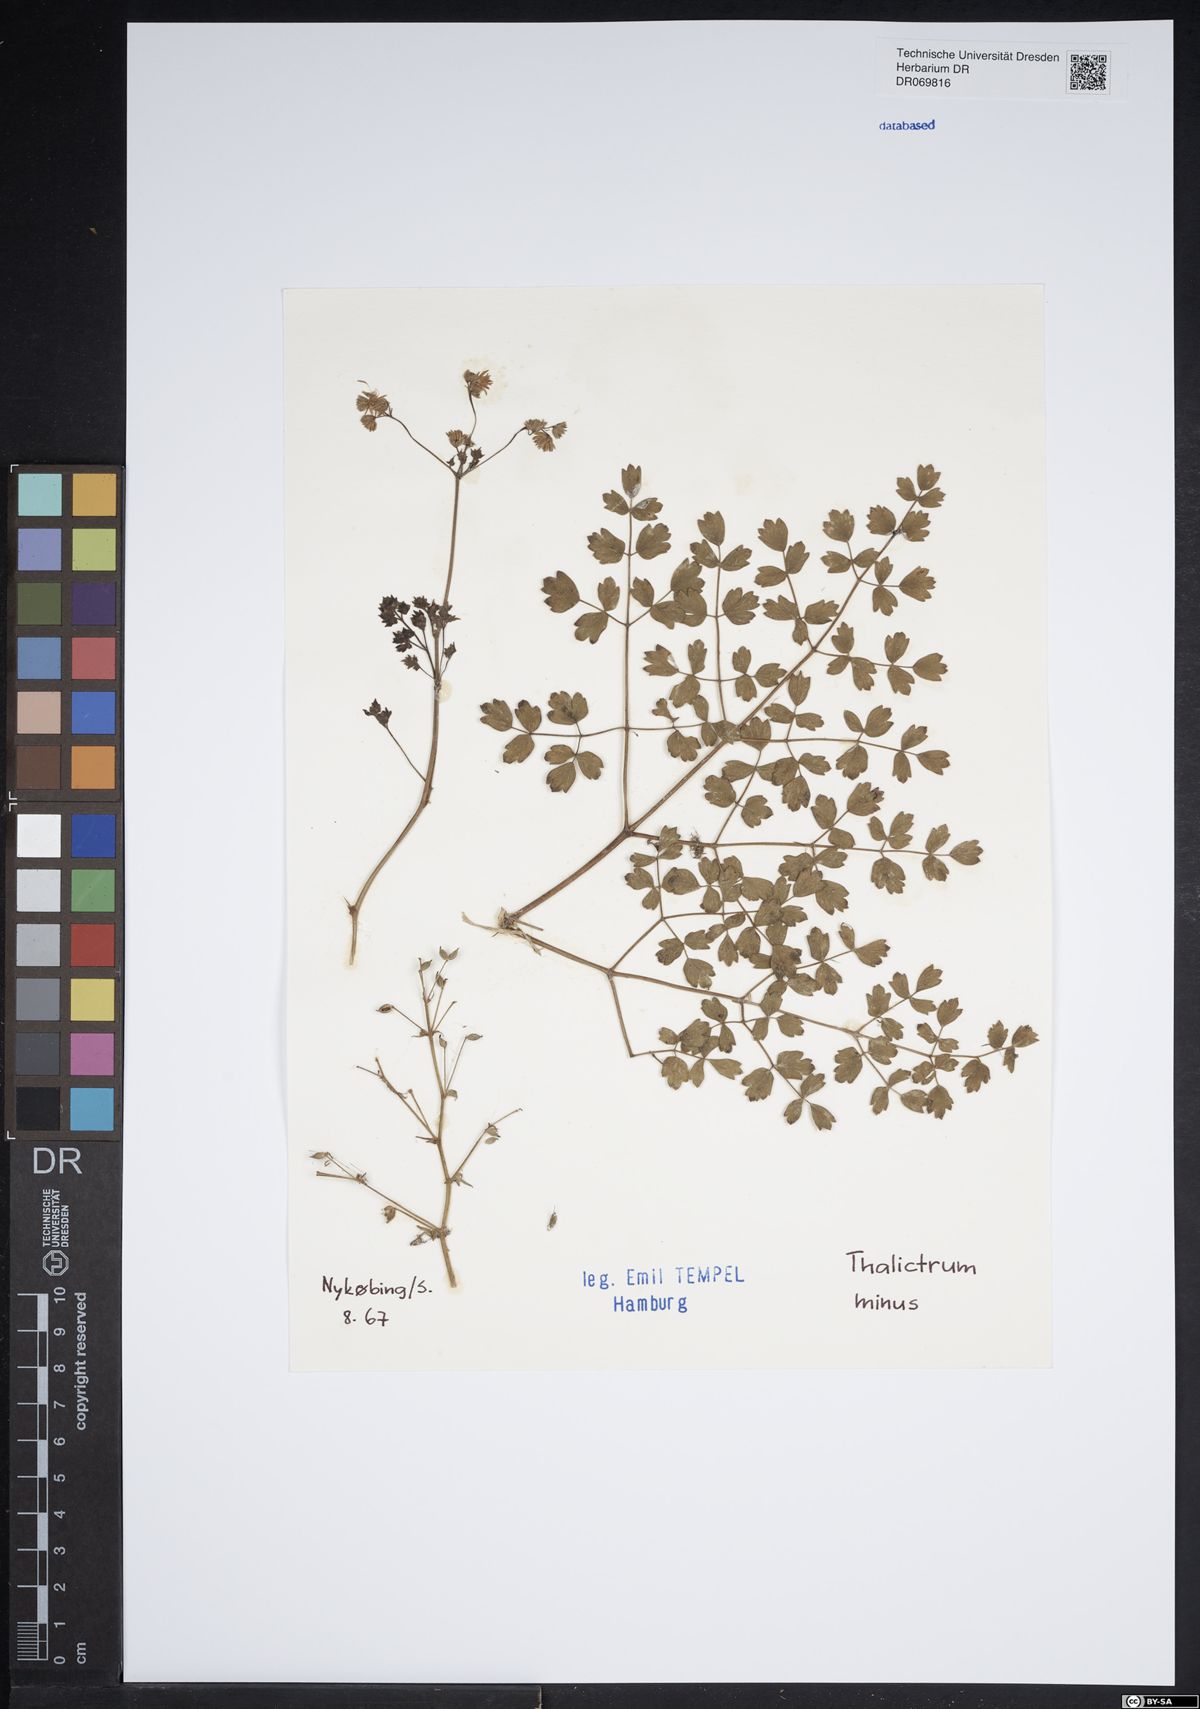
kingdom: Plantae
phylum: Tracheophyta
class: Magnoliopsida
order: Ranunculales
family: Ranunculaceae
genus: Thalictrum
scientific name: Thalictrum minus
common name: Lesser meadow-rue
